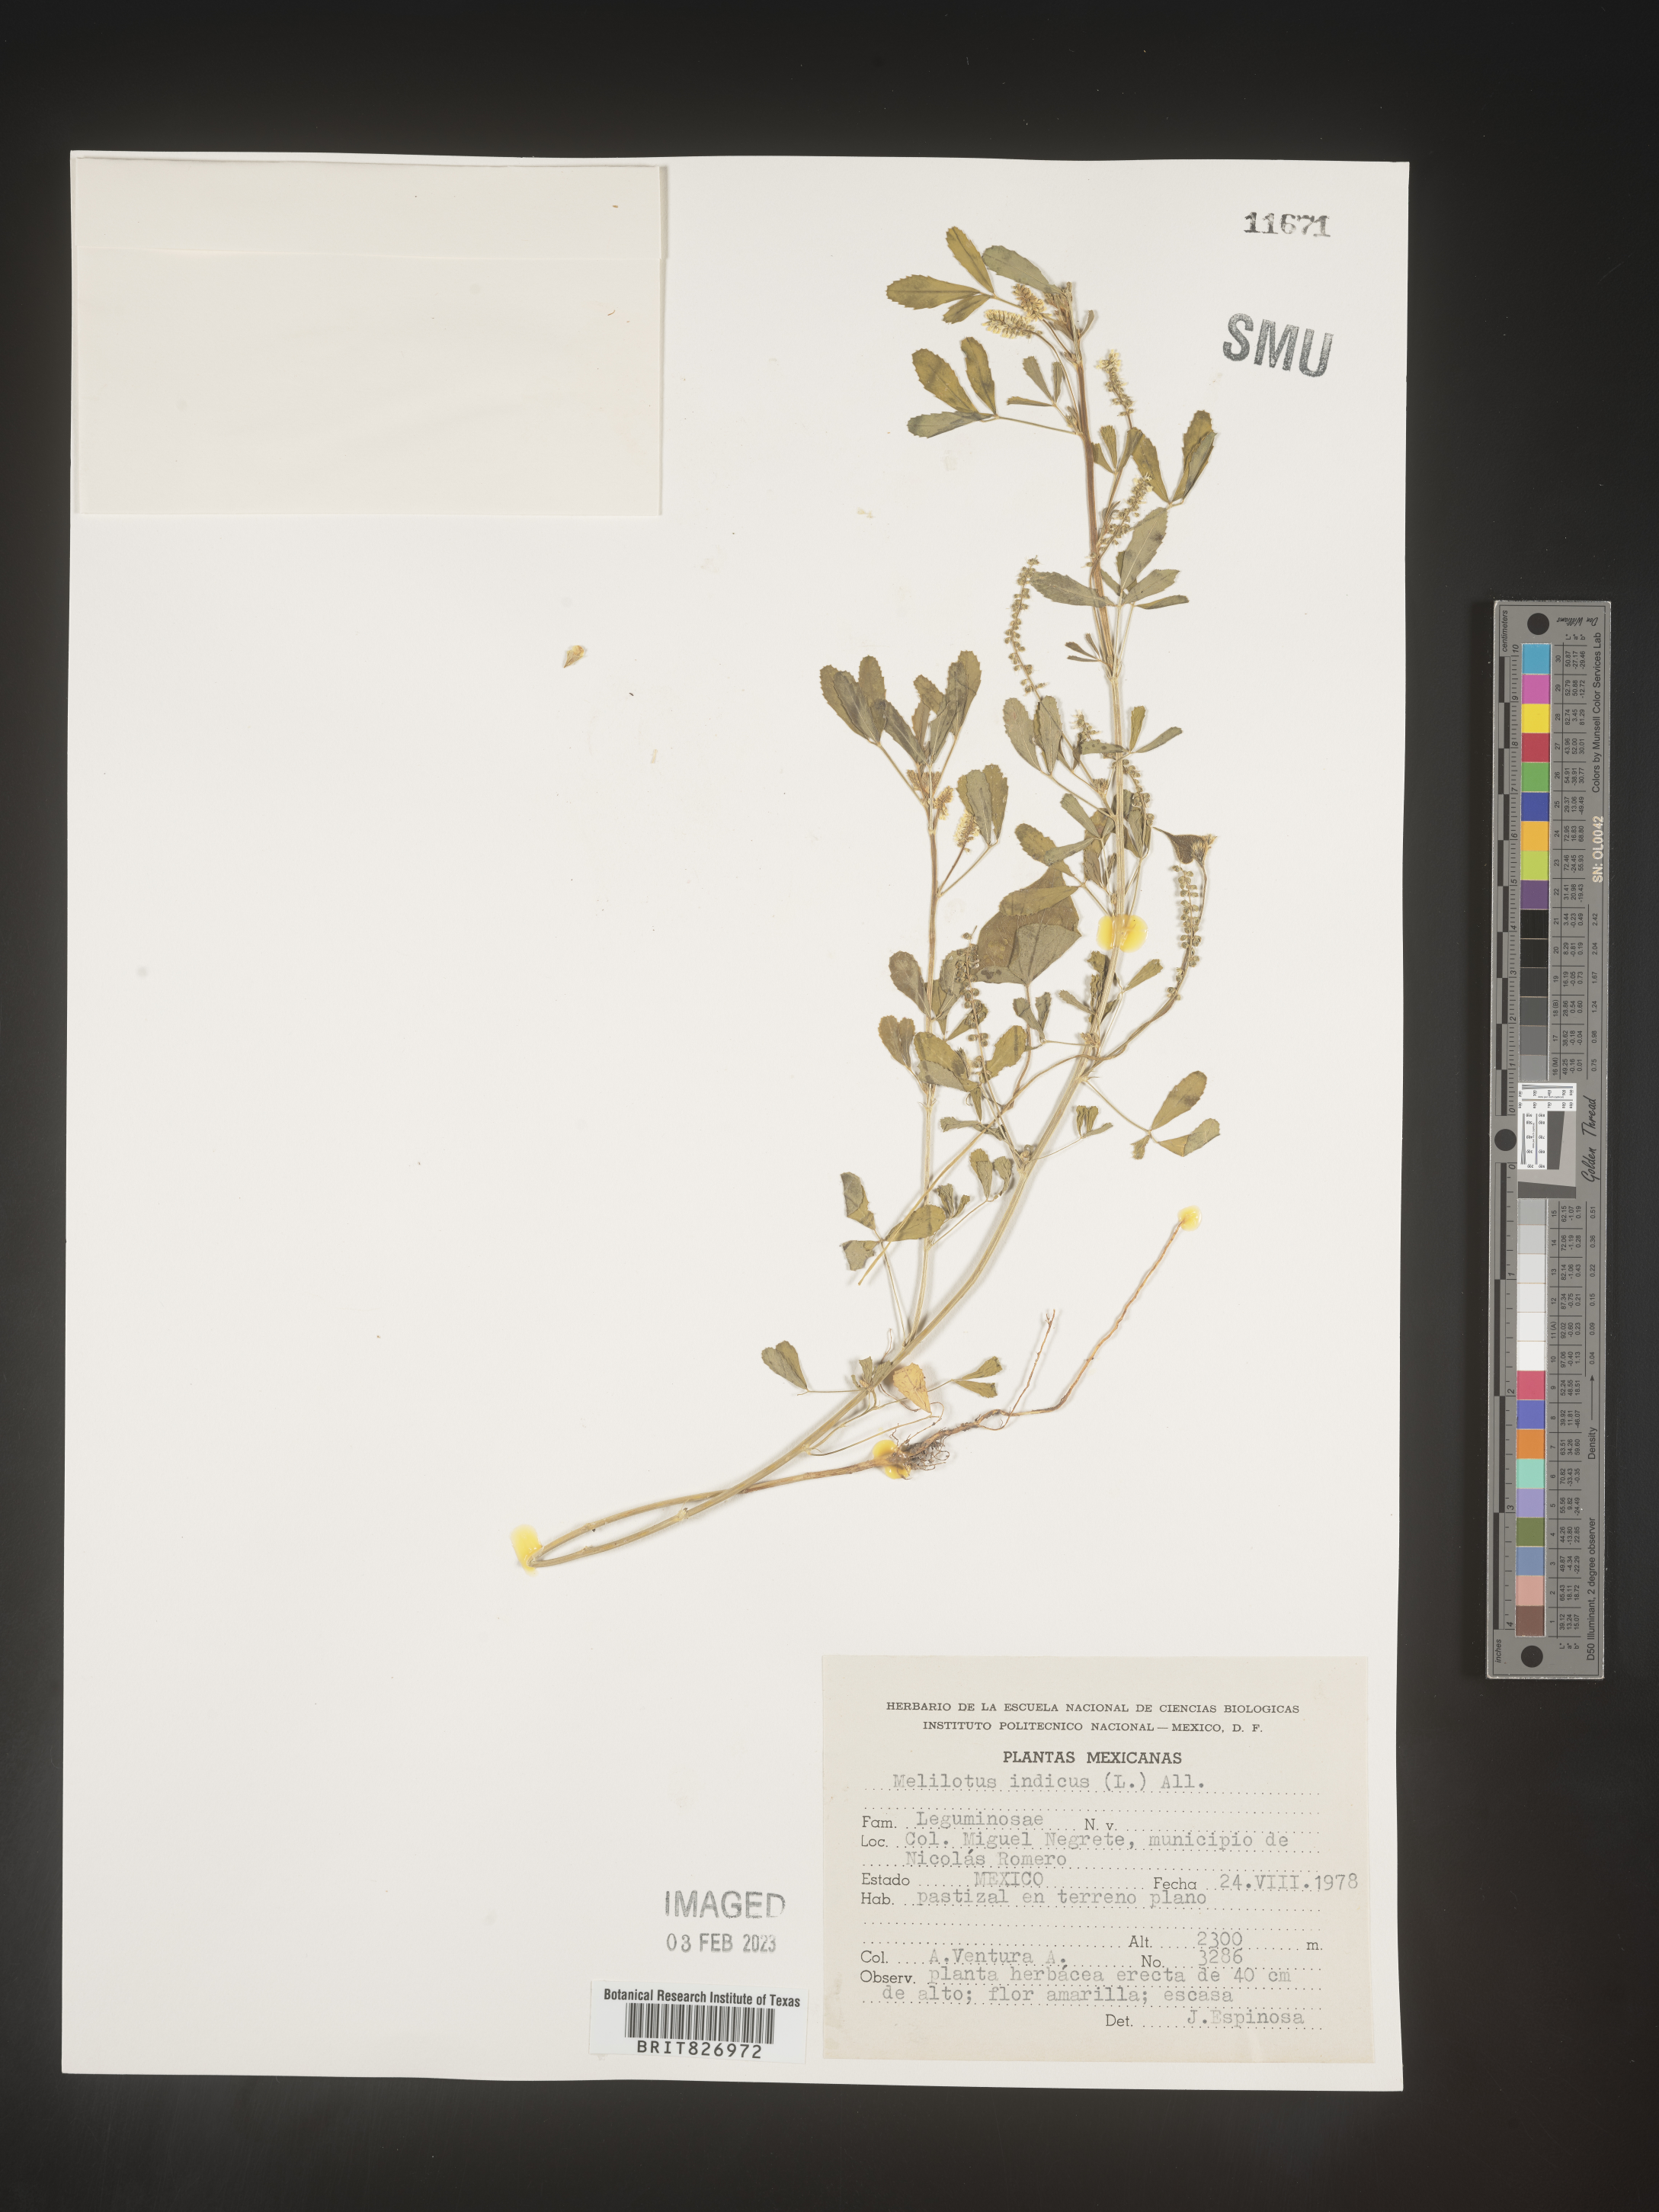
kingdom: Plantae
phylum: Tracheophyta
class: Magnoliopsida
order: Fabales
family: Fabaceae
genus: Melilotus
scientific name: Melilotus
